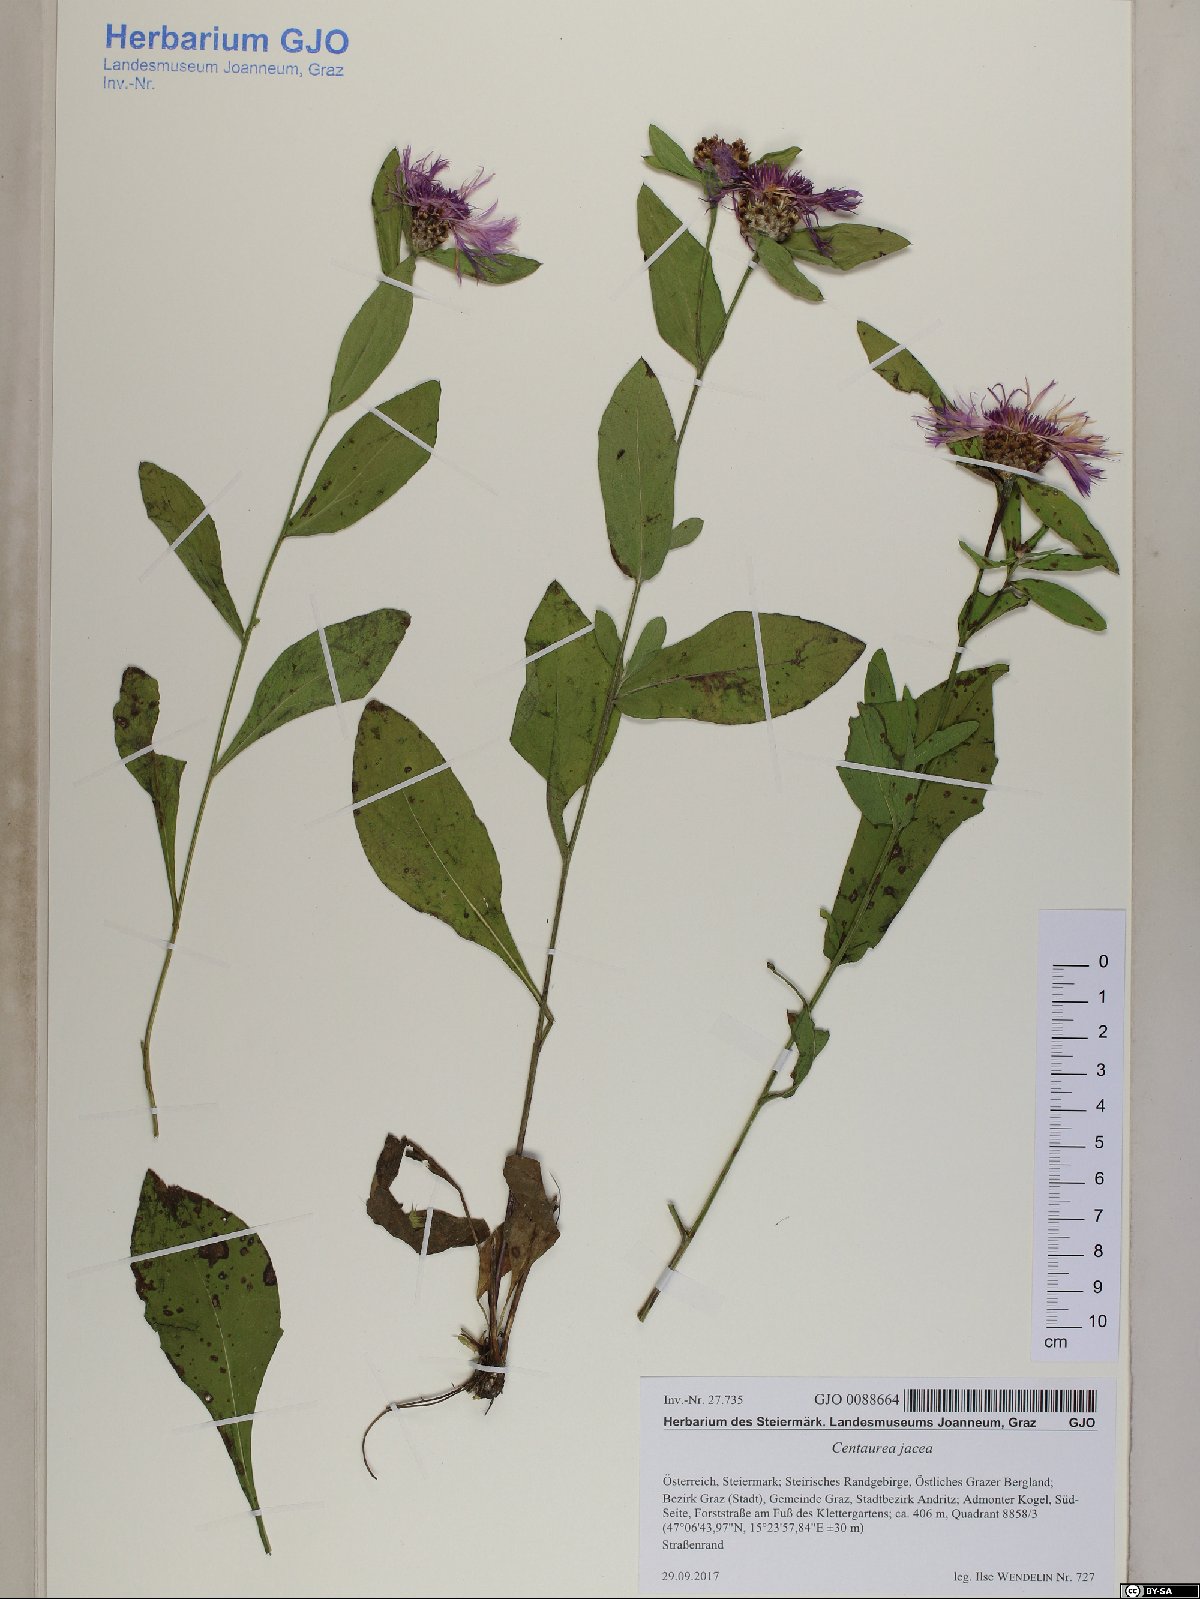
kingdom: Plantae
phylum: Tracheophyta
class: Magnoliopsida
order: Asterales
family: Asteraceae
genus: Centaurea
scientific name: Centaurea jacea
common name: Brown knapweed
